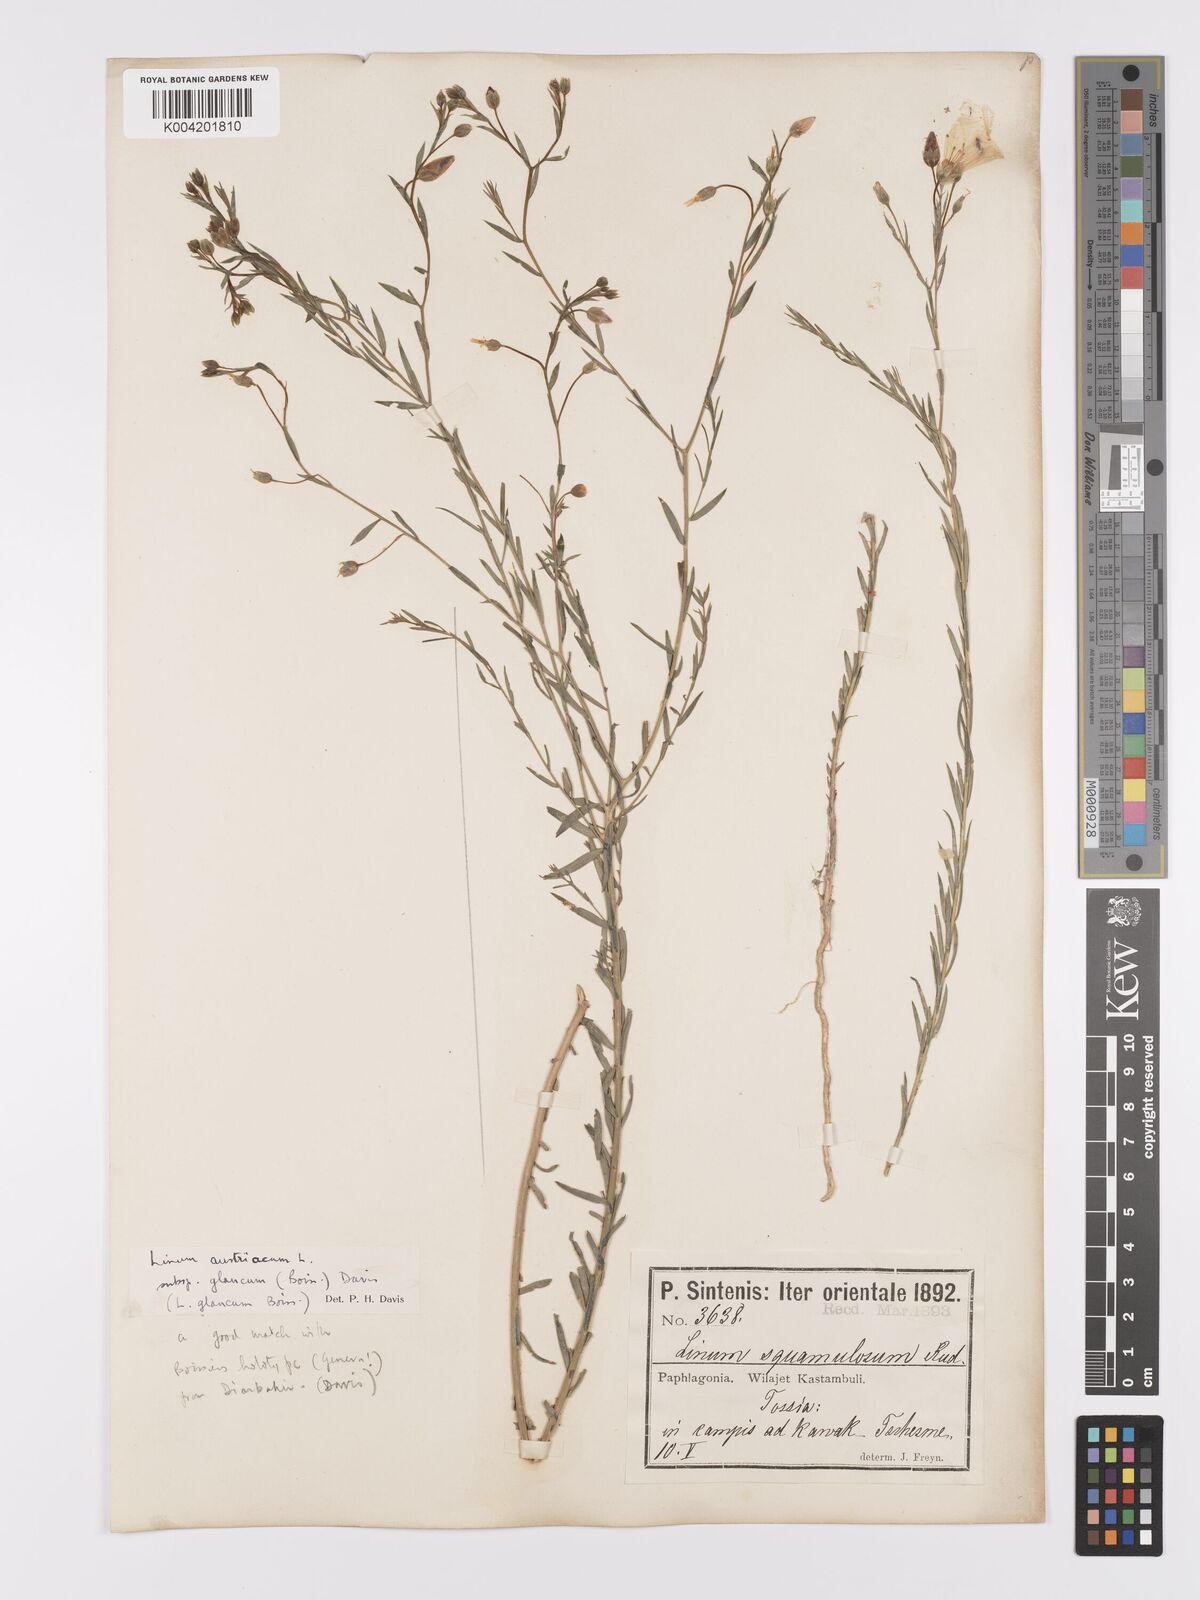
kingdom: Plantae
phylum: Tracheophyta
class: Magnoliopsida
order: Malpighiales
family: Linaceae
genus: Linum
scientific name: Linum
